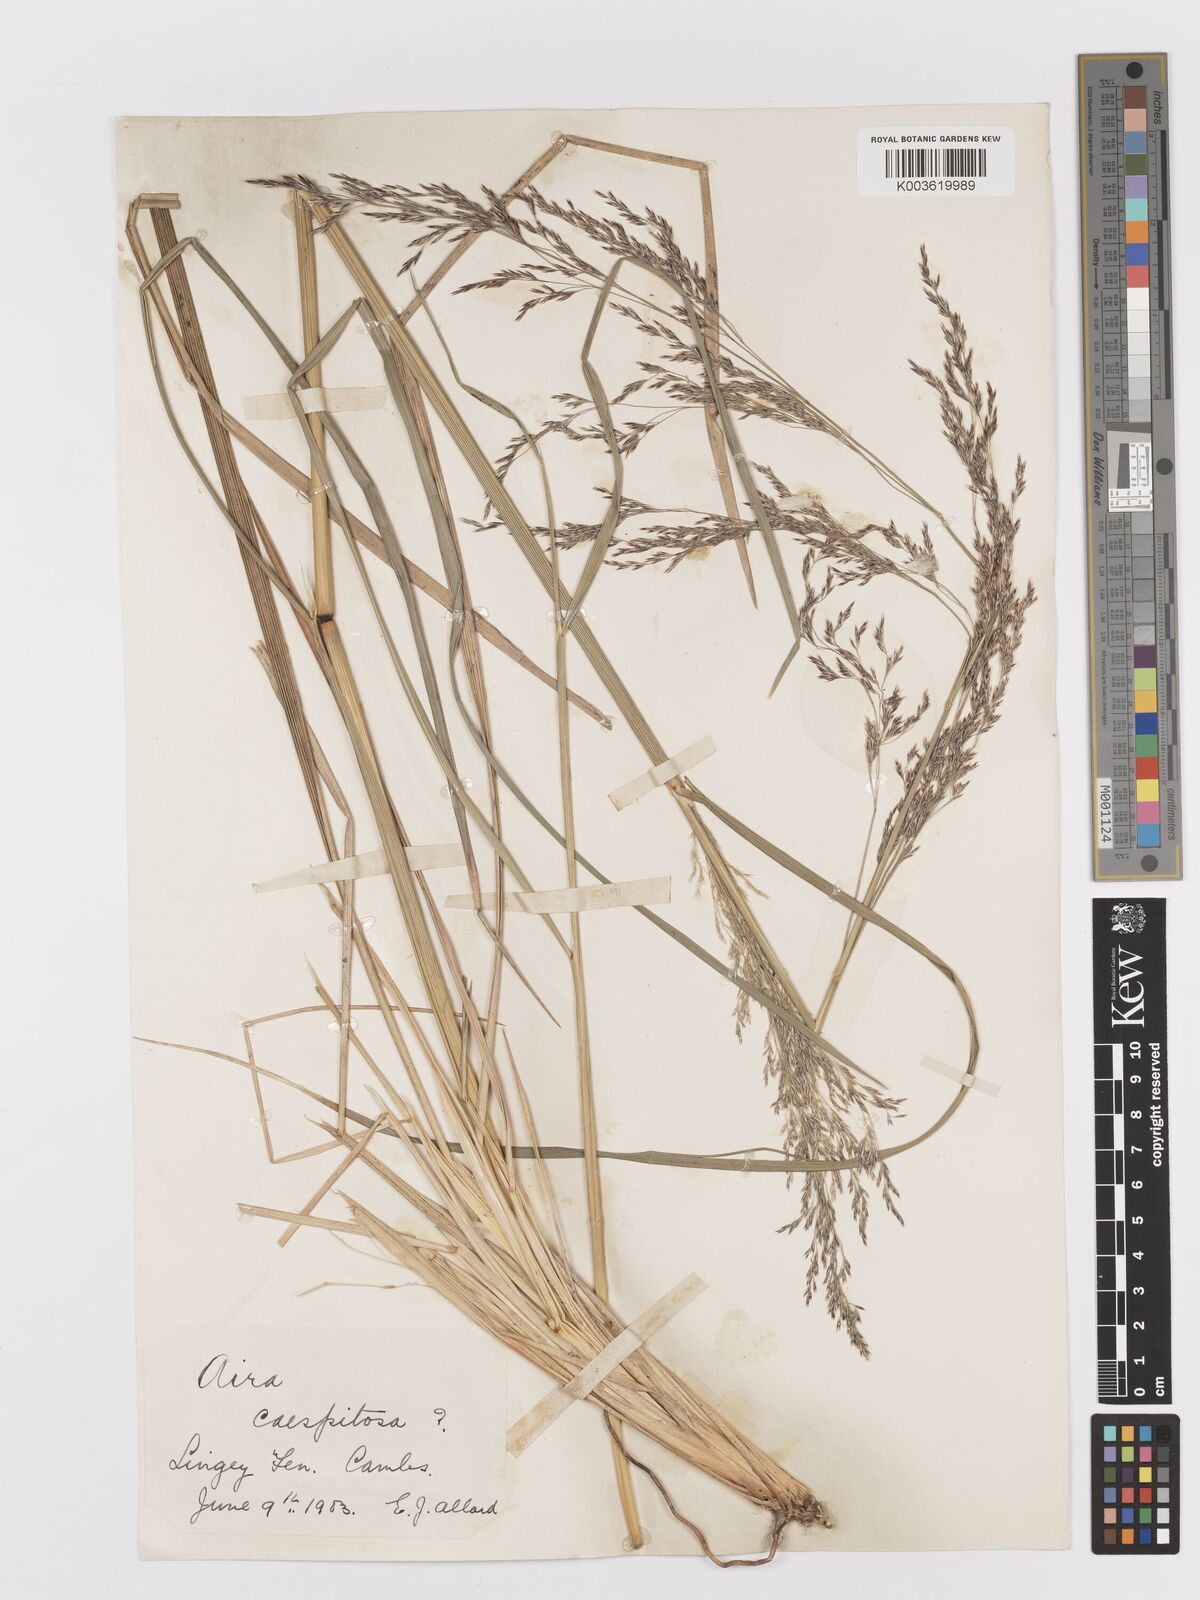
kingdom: Plantae
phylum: Tracheophyta
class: Liliopsida
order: Poales
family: Poaceae
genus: Deschampsia
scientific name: Deschampsia cespitosa
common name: Tufted hair-grass
